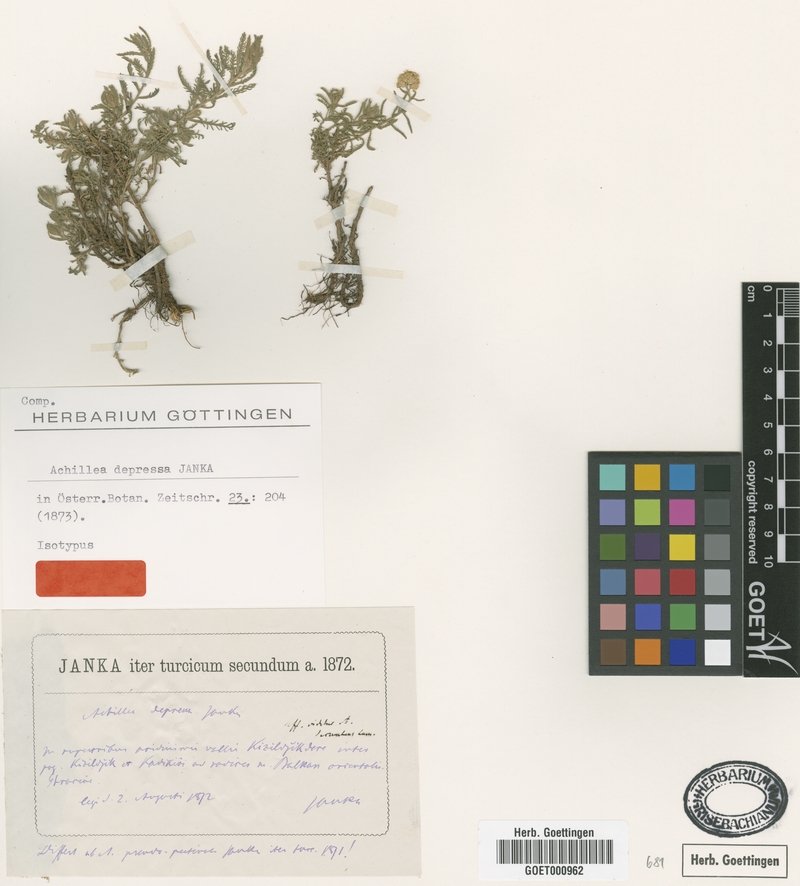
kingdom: Plantae
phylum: Tracheophyta
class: Magnoliopsida
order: Asterales
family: Asteraceae
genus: Achillea
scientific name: Achillea pseudopectinata
